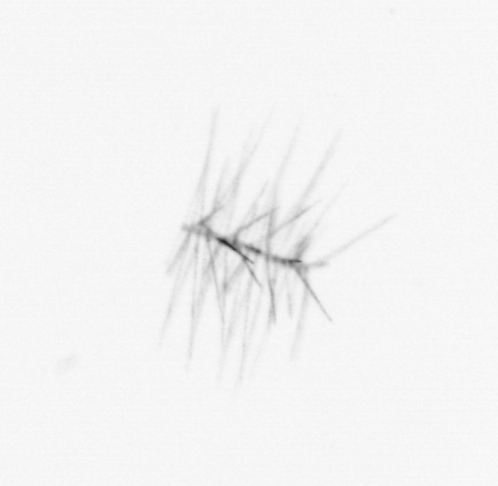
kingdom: Chromista
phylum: Ochrophyta
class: Bacillariophyceae
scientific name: Bacillariophyceae
